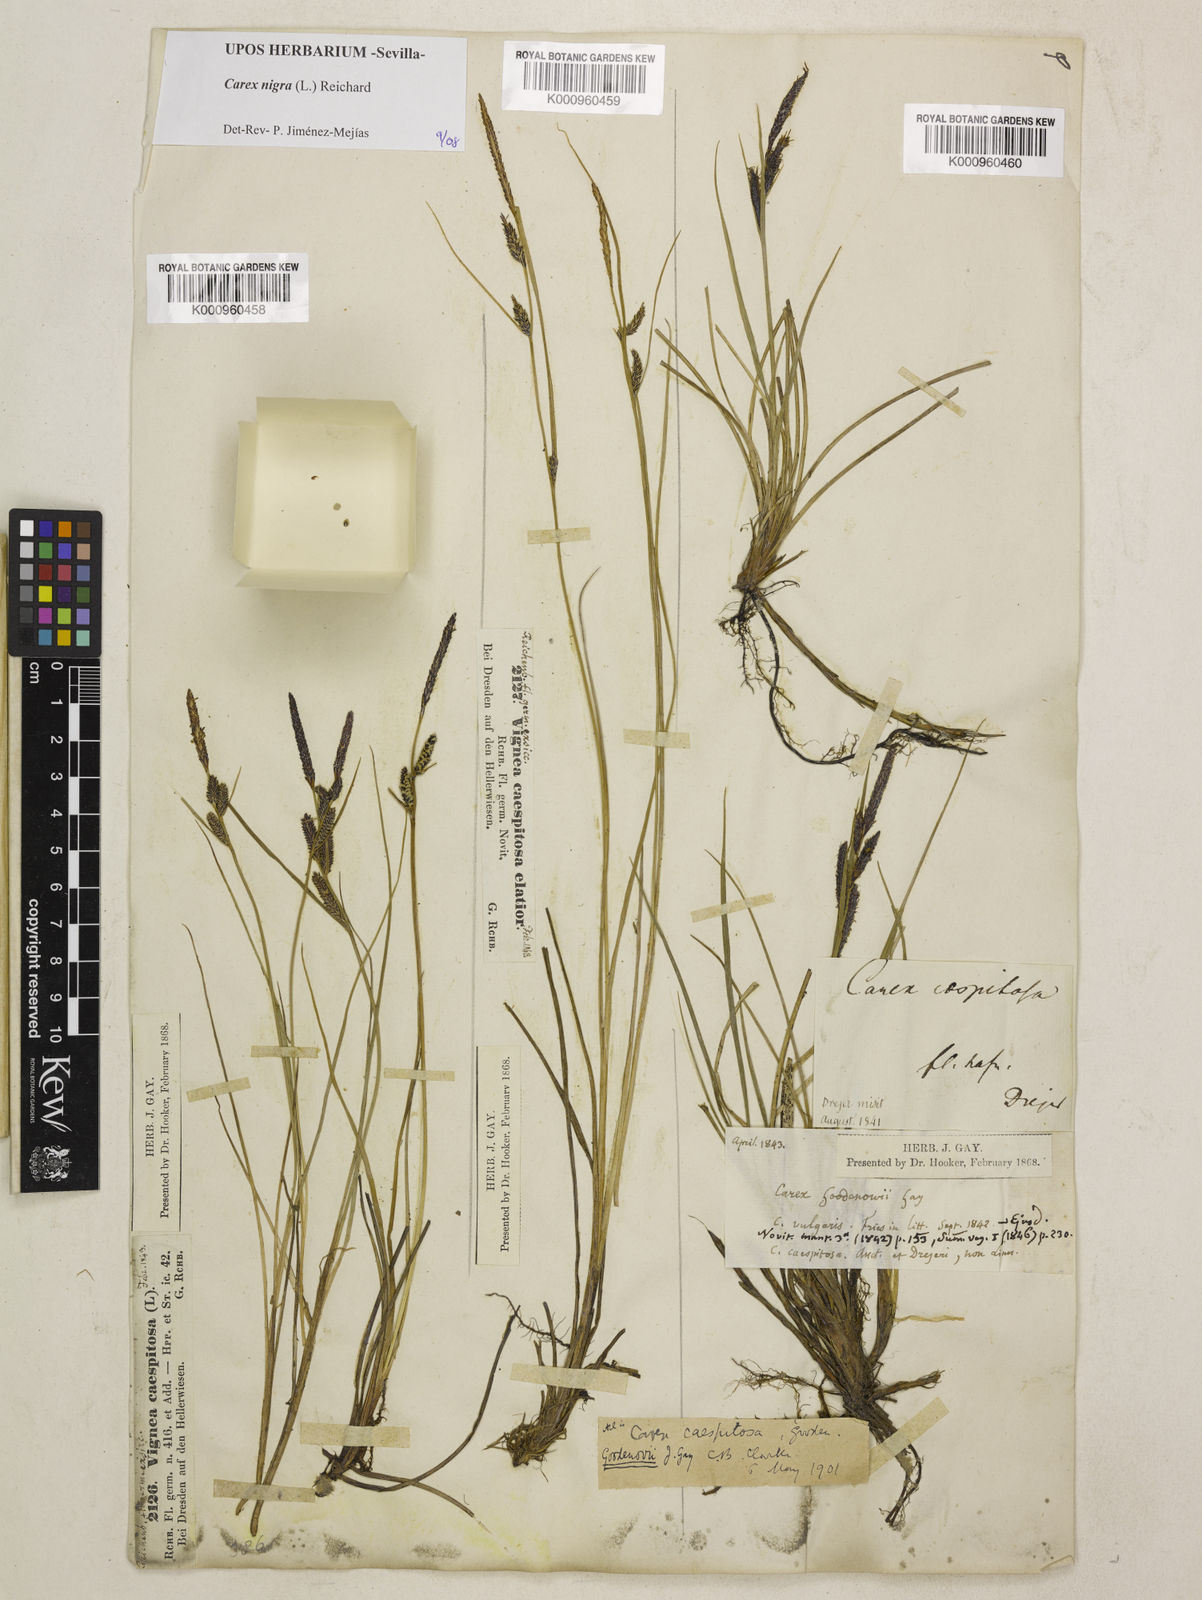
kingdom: Plantae
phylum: Tracheophyta
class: Liliopsida
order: Poales
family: Cyperaceae
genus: Carex
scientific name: Carex nigra
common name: Common sedge
